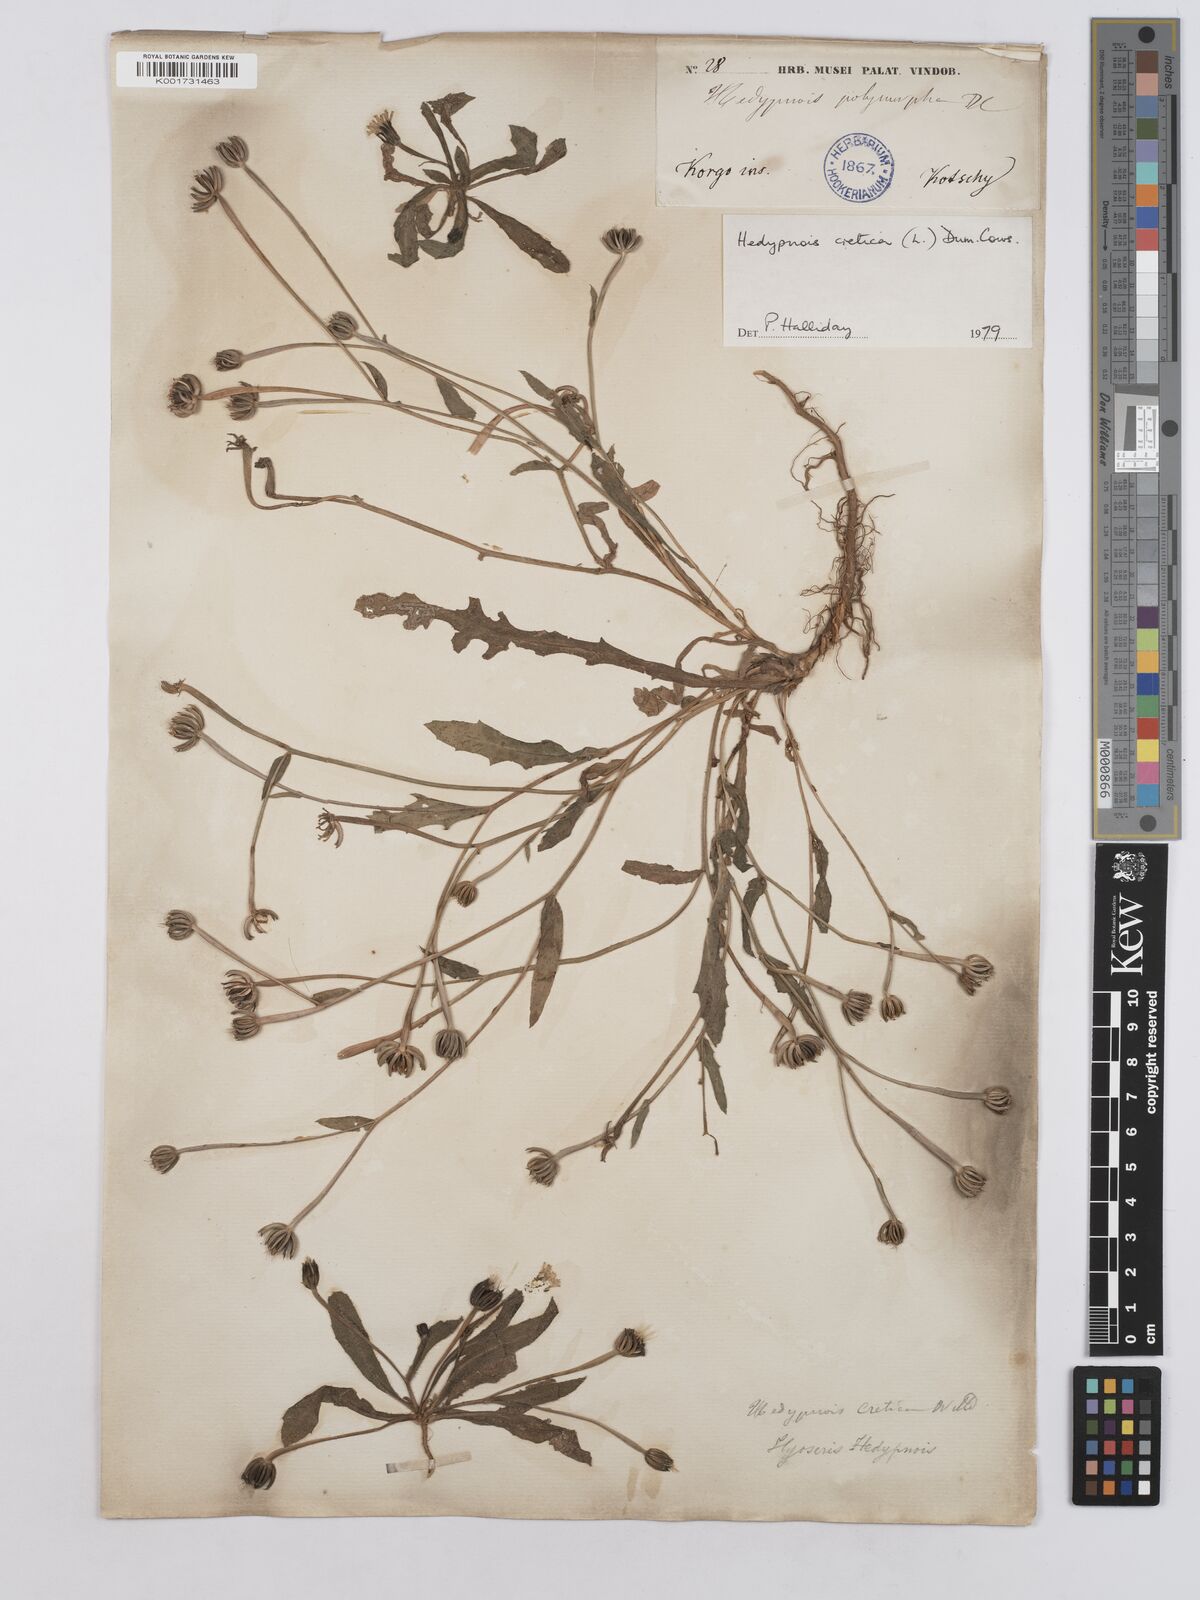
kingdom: Plantae
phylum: Tracheophyta
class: Magnoliopsida
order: Asterales
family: Asteraceae
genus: Hedypnois
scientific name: Hedypnois cretica
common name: Scaly hawkbit
